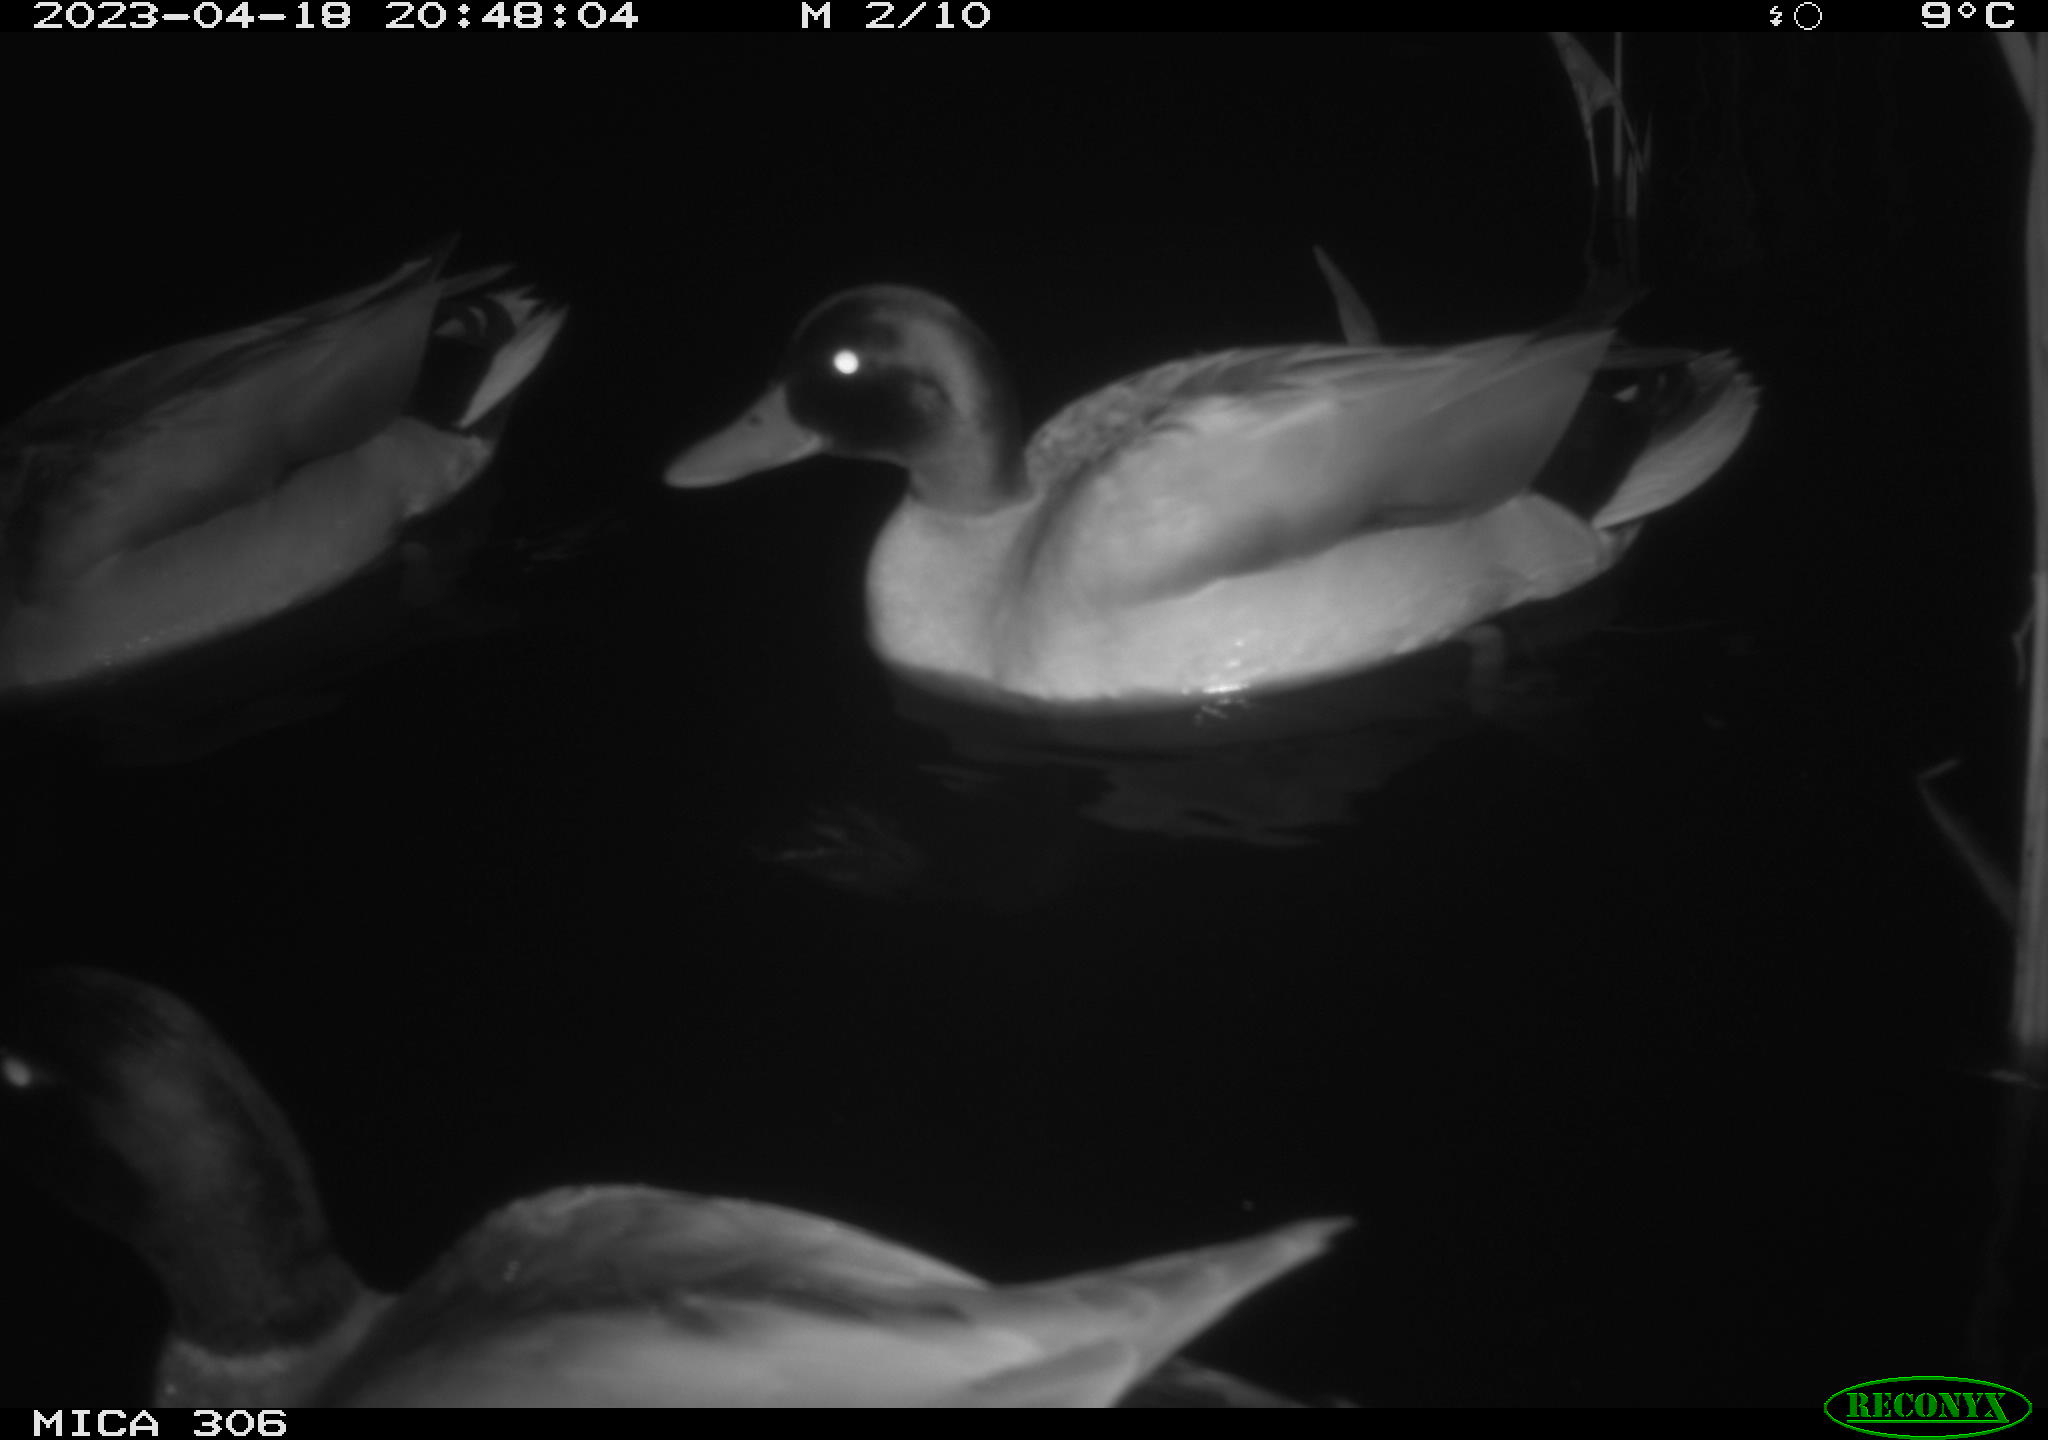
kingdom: Animalia
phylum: Chordata
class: Aves
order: Anseriformes
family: Anatidae
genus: Anas
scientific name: Anas
